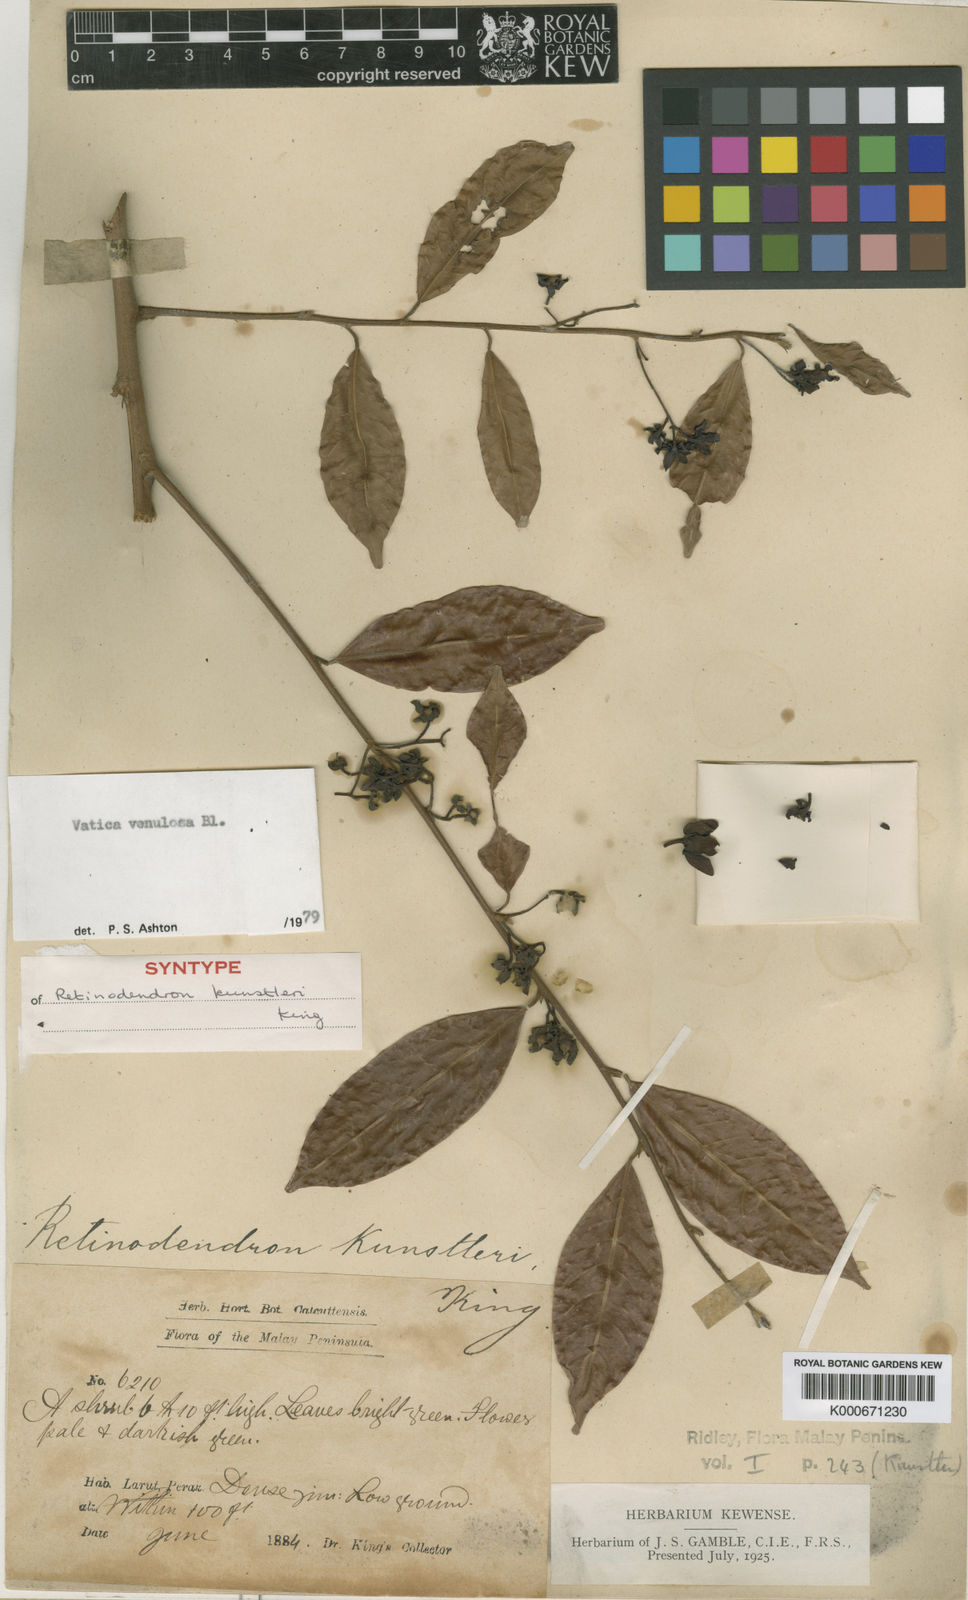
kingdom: Plantae
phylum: Tracheophyta
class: Magnoliopsida
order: Malvales
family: Dipterocarpaceae
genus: Vatica
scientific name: Vatica venulosa
